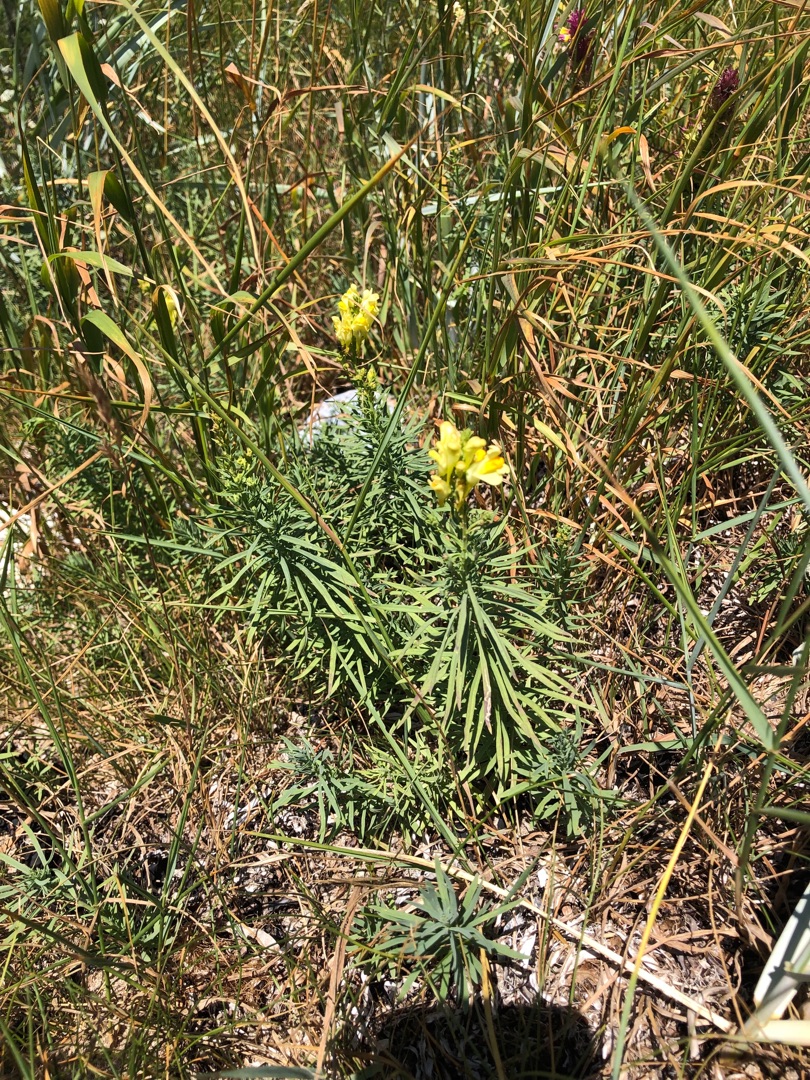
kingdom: Plantae
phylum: Tracheophyta
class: Magnoliopsida
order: Lamiales
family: Plantaginaceae
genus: Linaria
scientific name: Linaria vulgaris
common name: Almindelig torskemund
